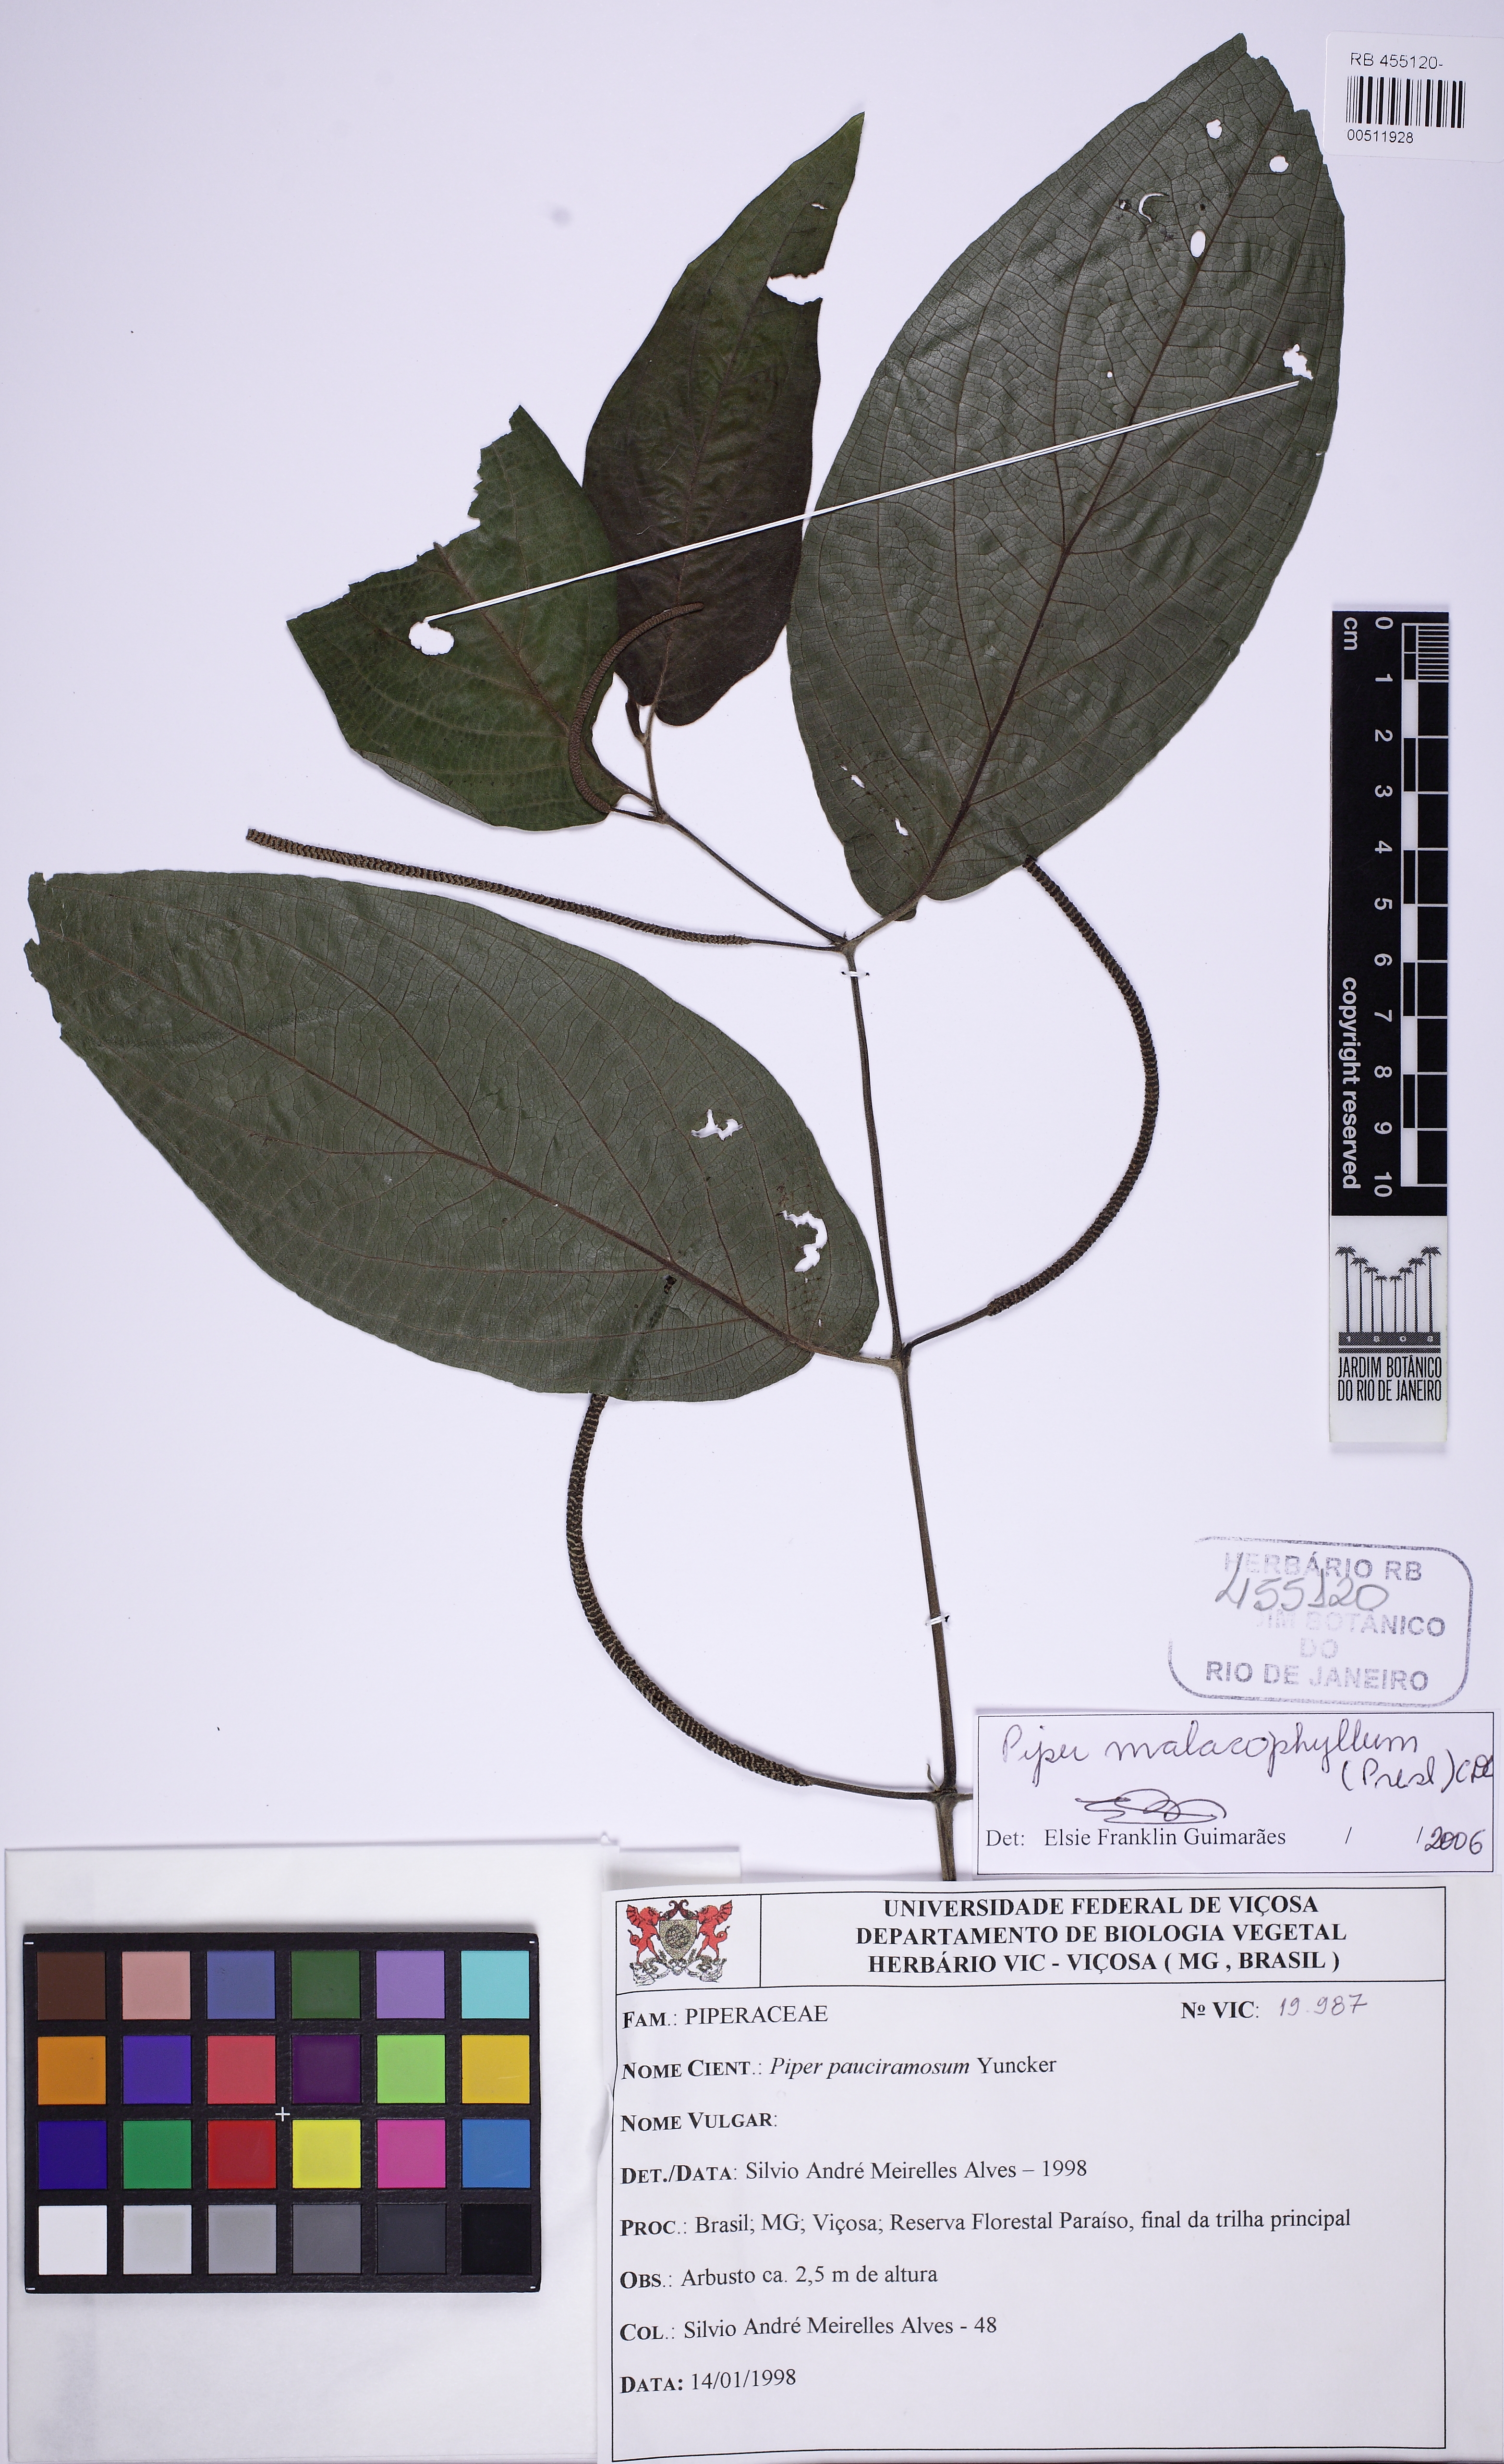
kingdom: Plantae
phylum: Tracheophyta
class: Magnoliopsida
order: Piperales
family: Piperaceae
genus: Piper
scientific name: Piper malacophyllum
